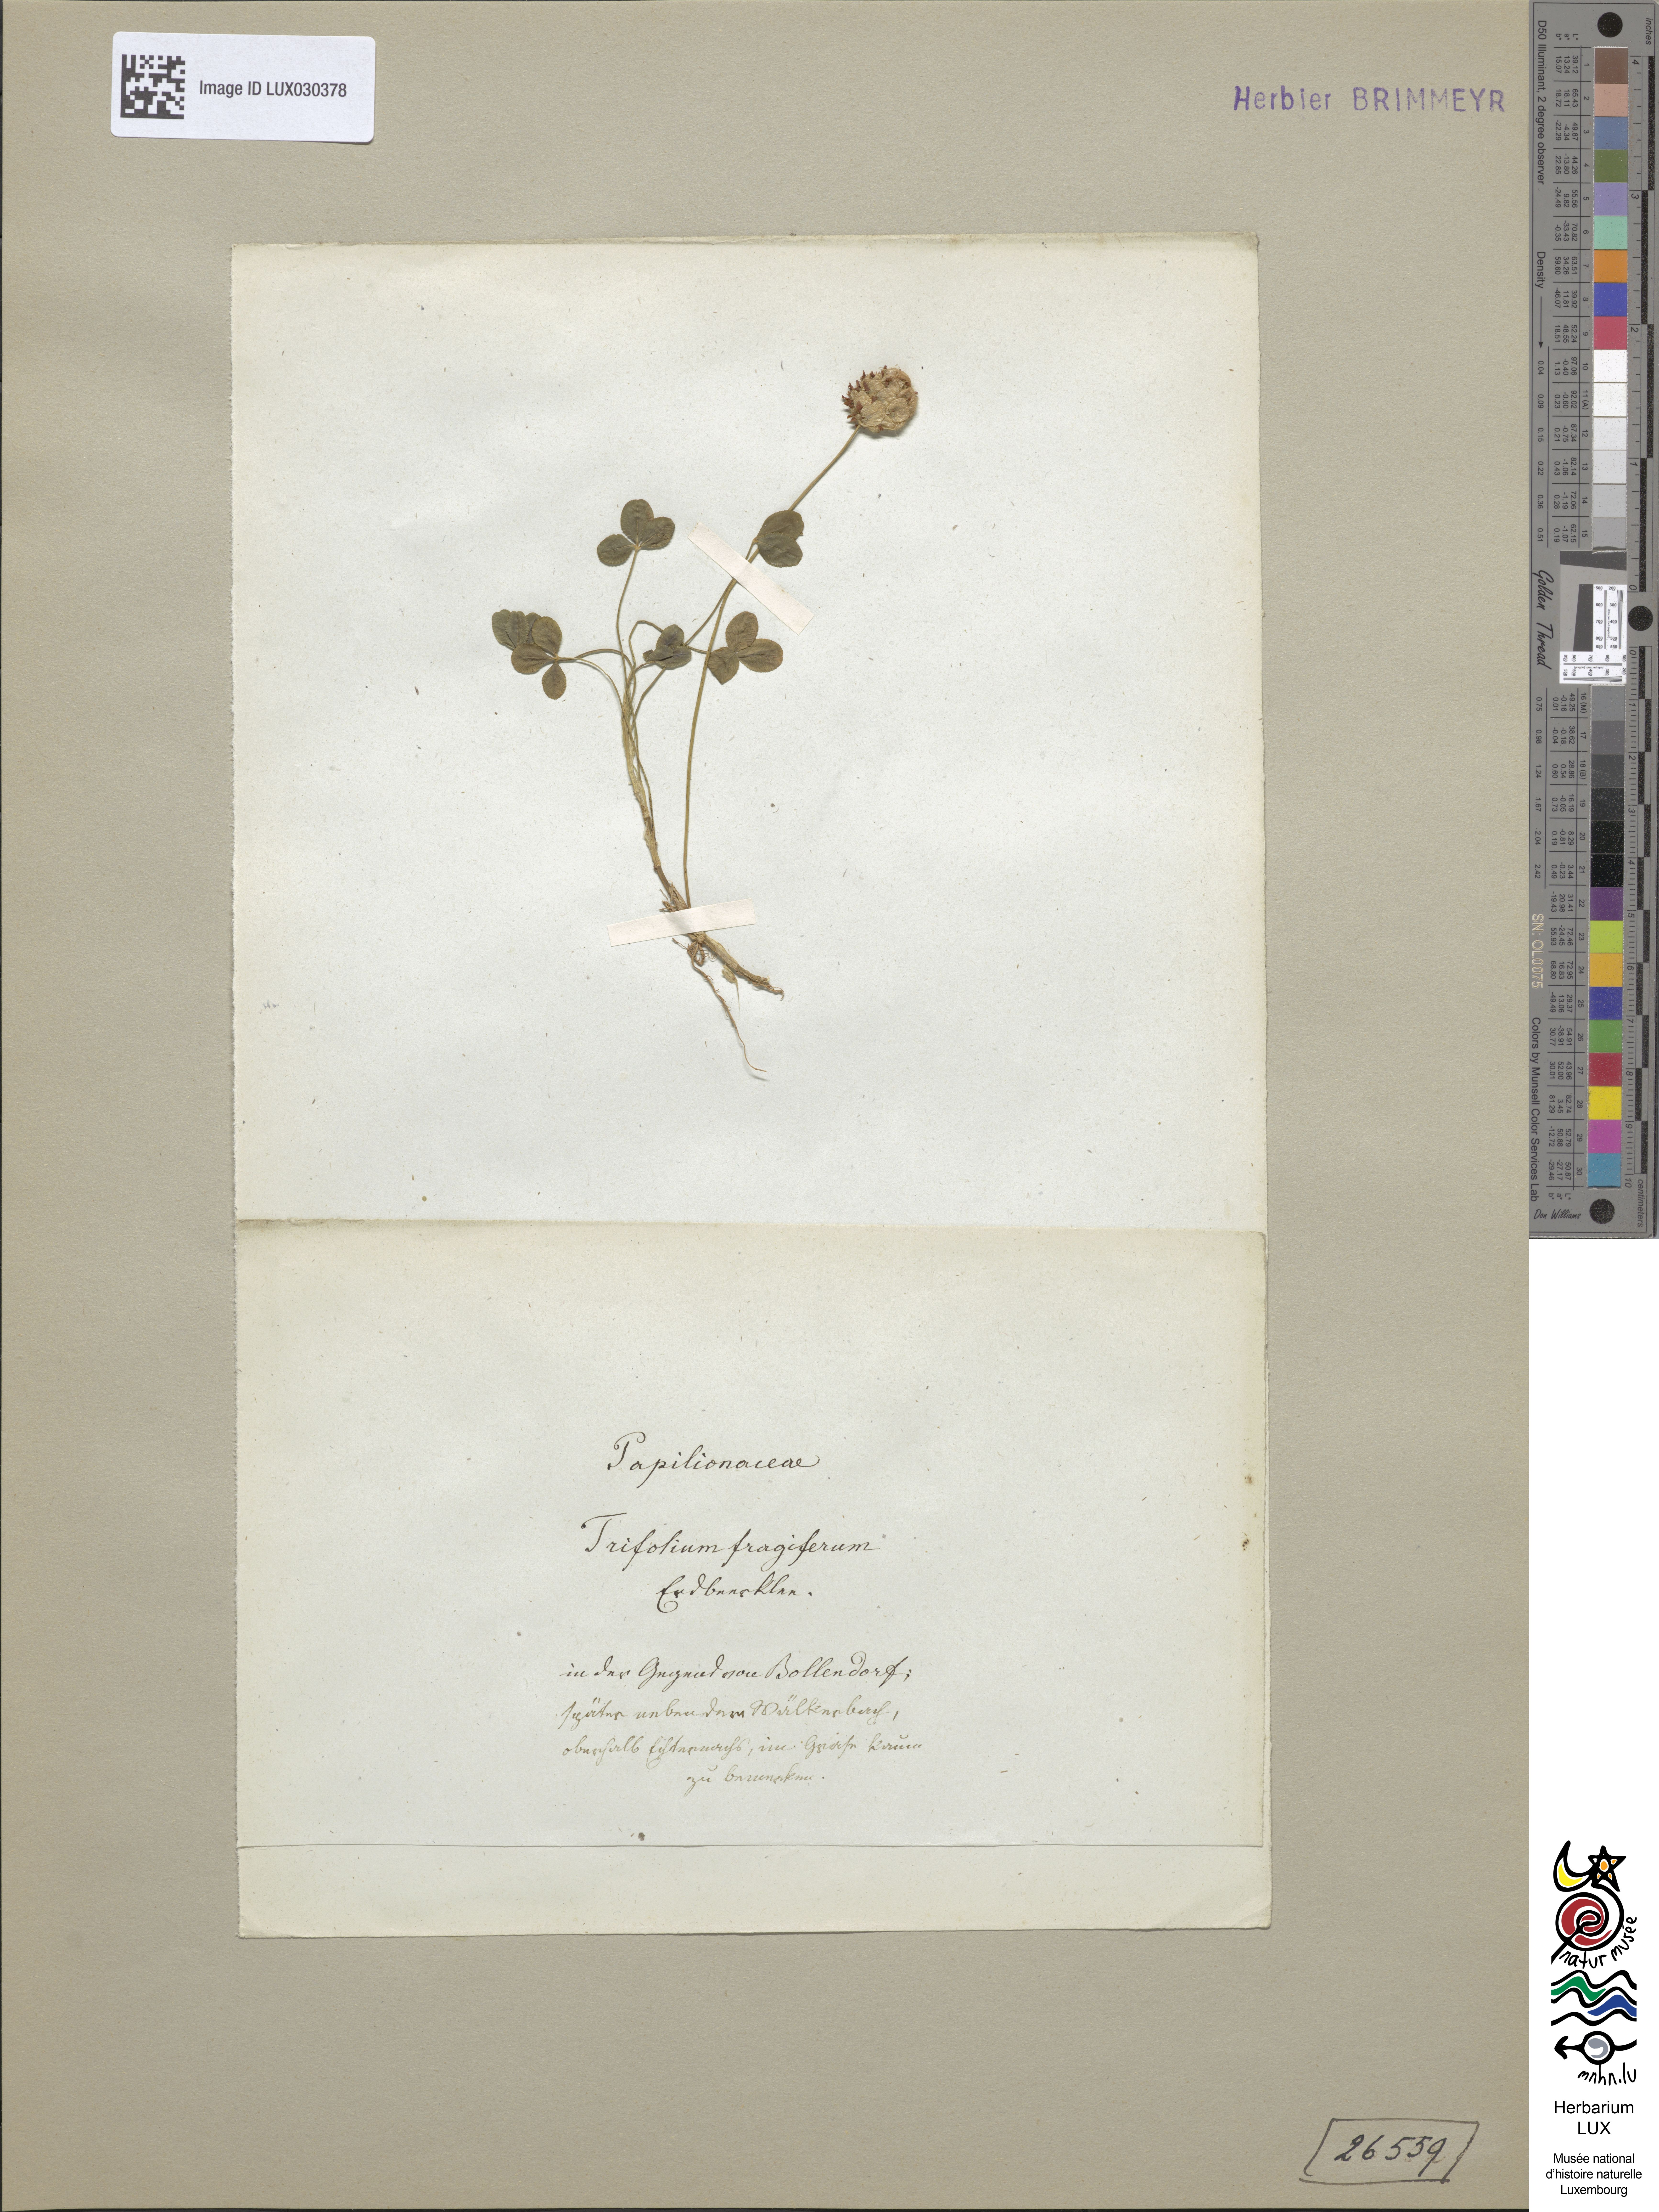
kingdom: Plantae
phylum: Tracheophyta
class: Magnoliopsida
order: Fabales
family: Fabaceae
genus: Trifolium
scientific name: Trifolium fragiferum
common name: Strawberry clover
